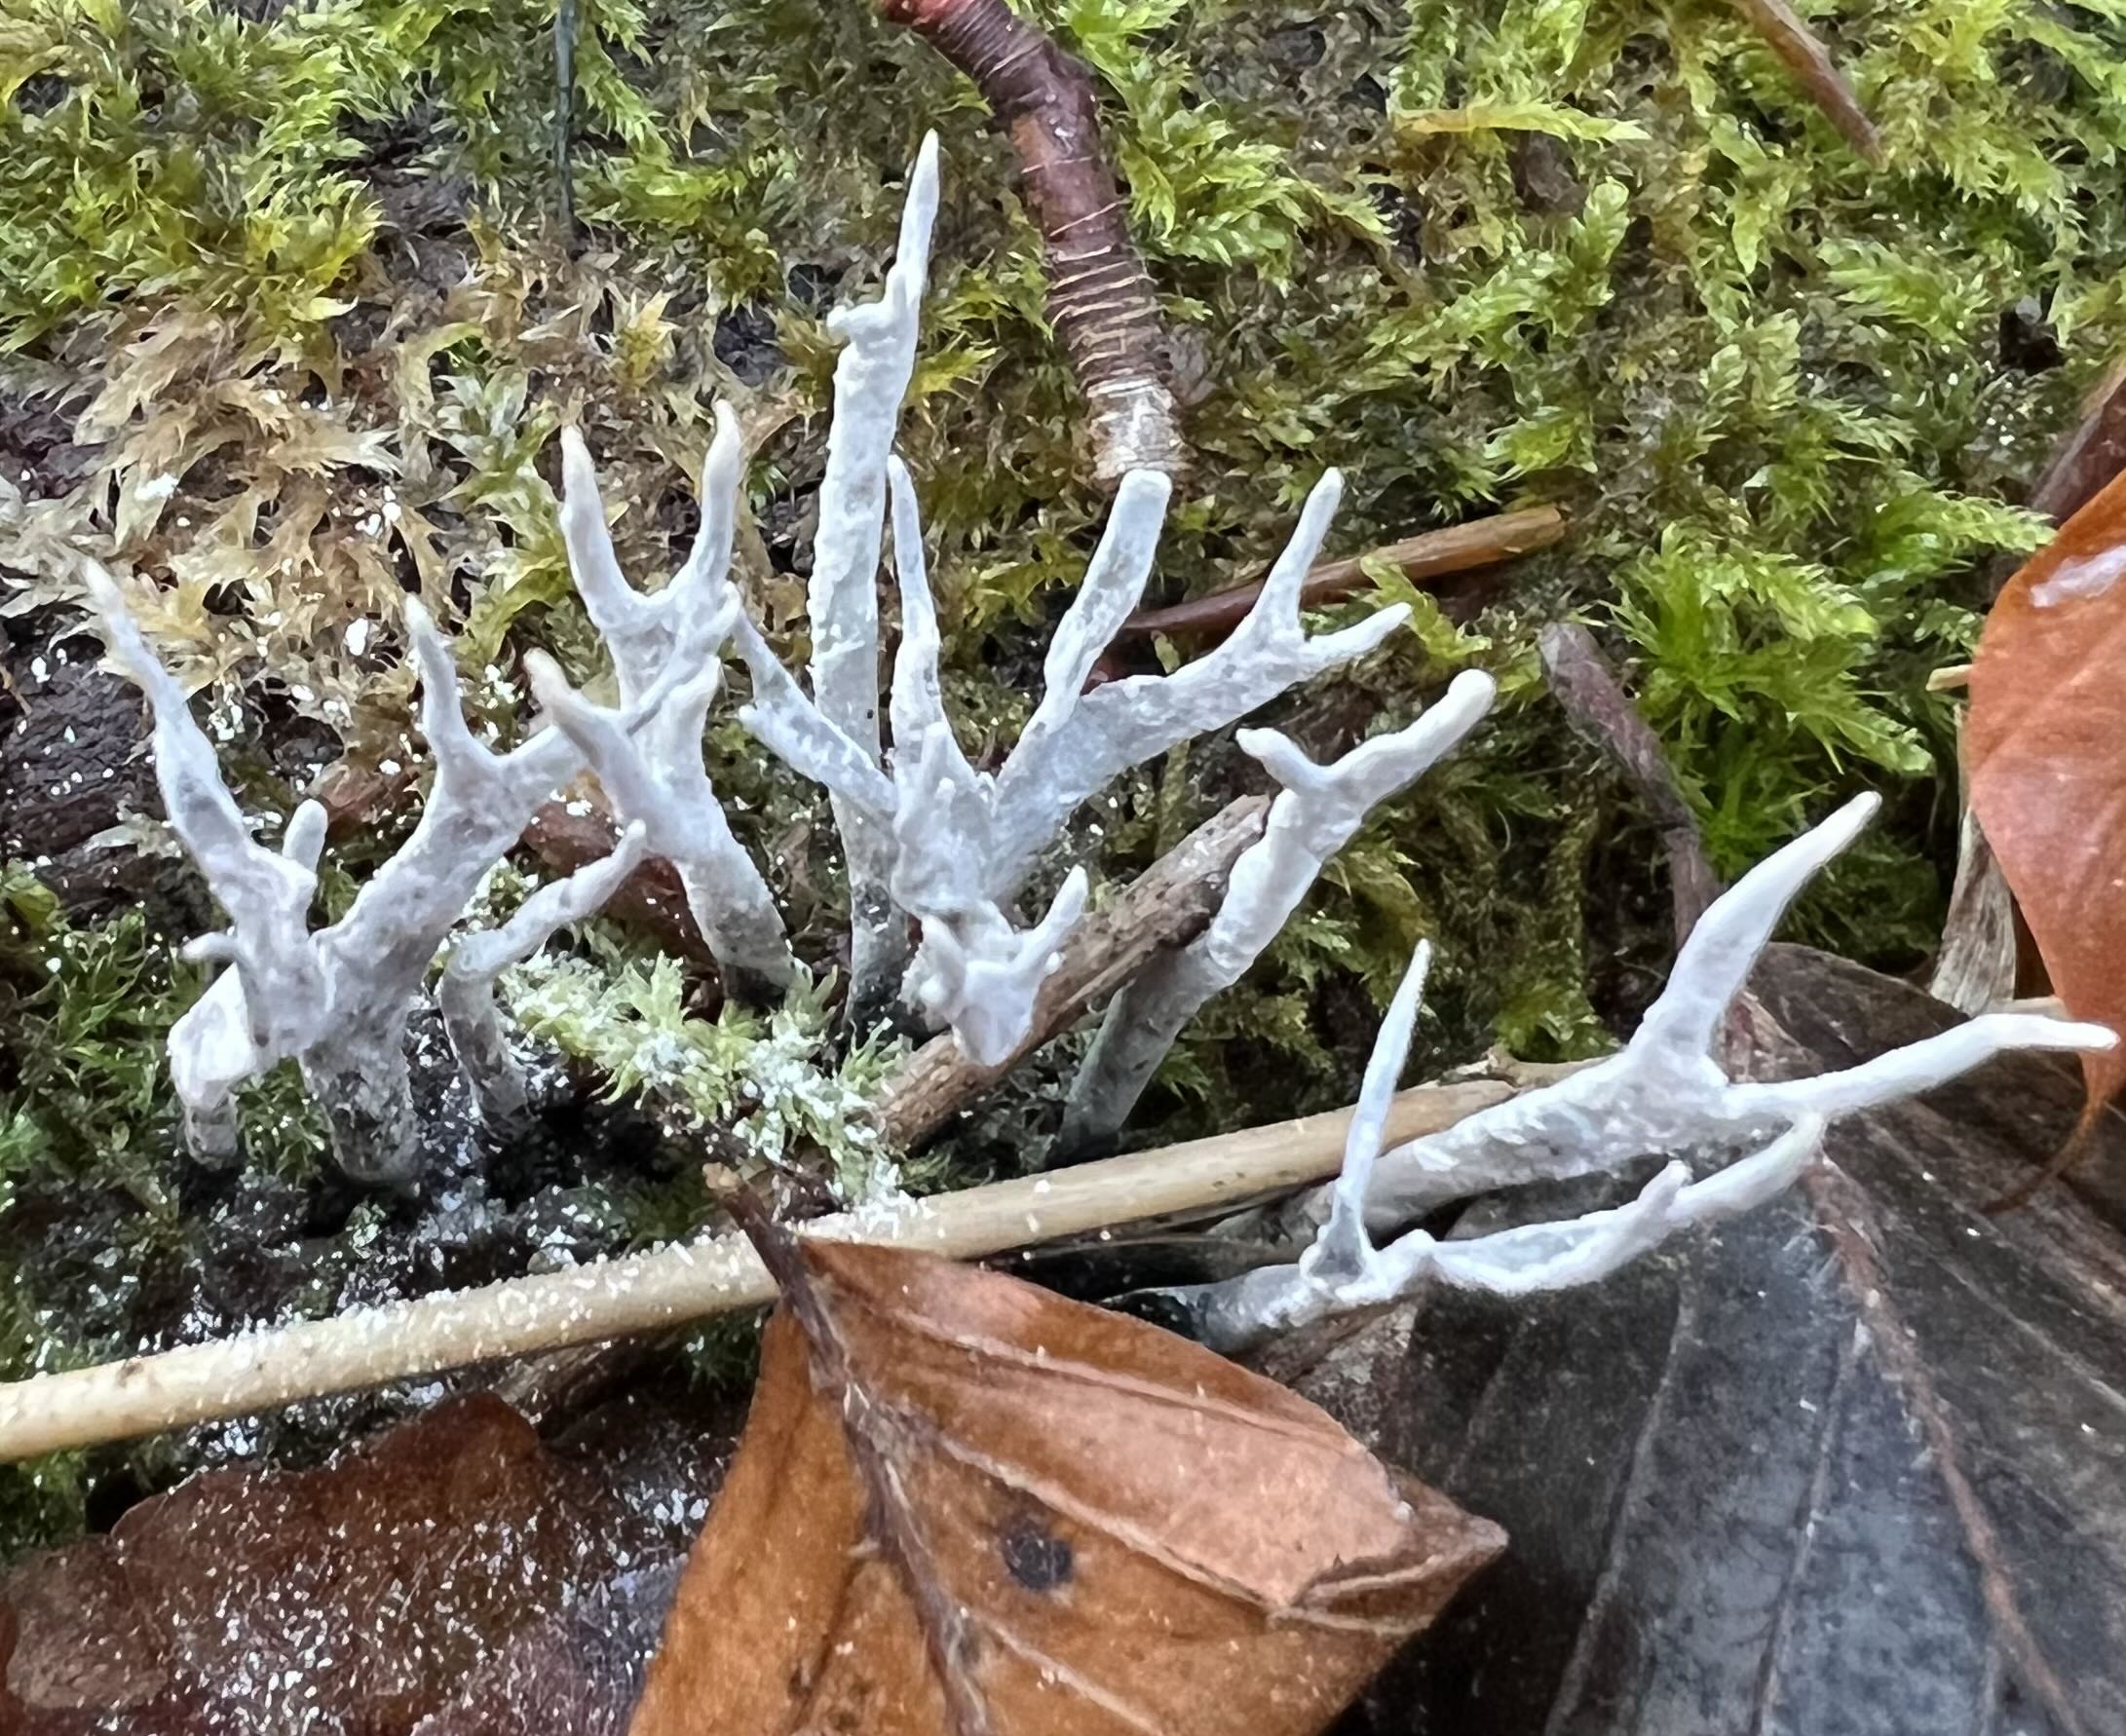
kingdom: Fungi
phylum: Ascomycota
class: Sordariomycetes
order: Xylariales
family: Xylariaceae
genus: Xylaria
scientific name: Xylaria hypoxylon
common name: grenet stødsvamp
